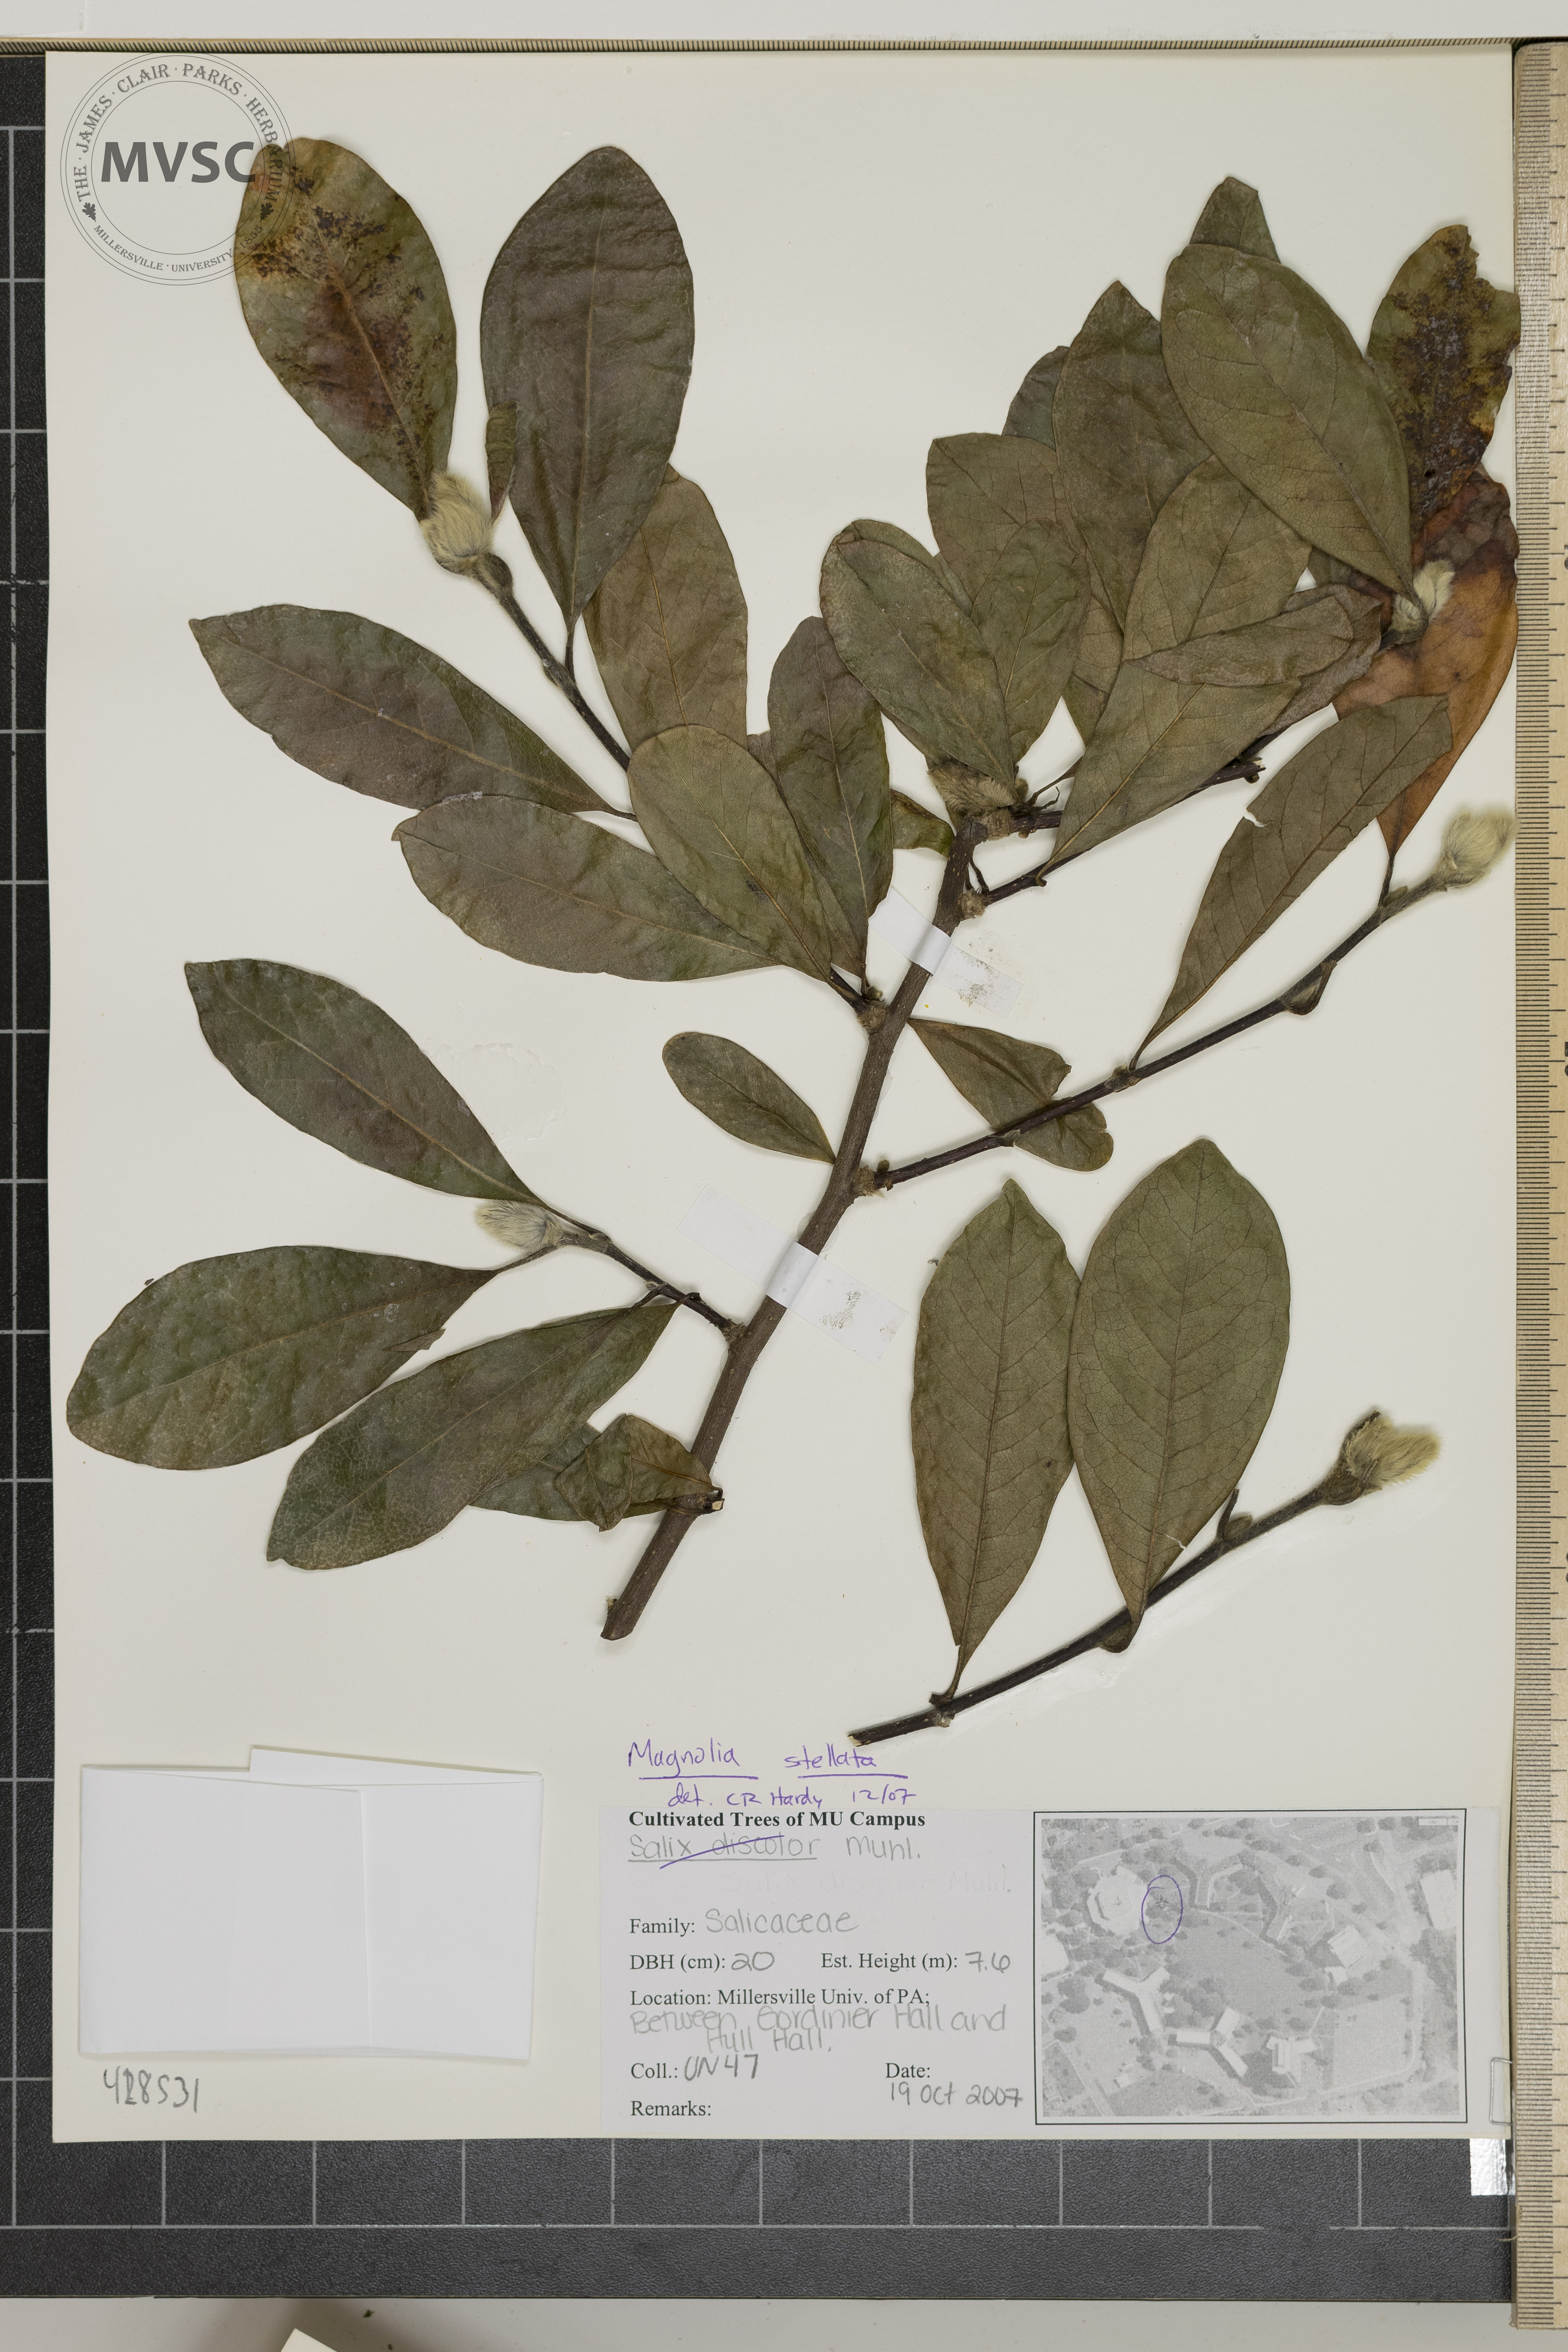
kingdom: Plantae
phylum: Tracheophyta
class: Magnoliopsida
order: Magnoliales
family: Magnoliaceae
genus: Magnolia
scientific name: Magnolia stellata
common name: Star magnolia
